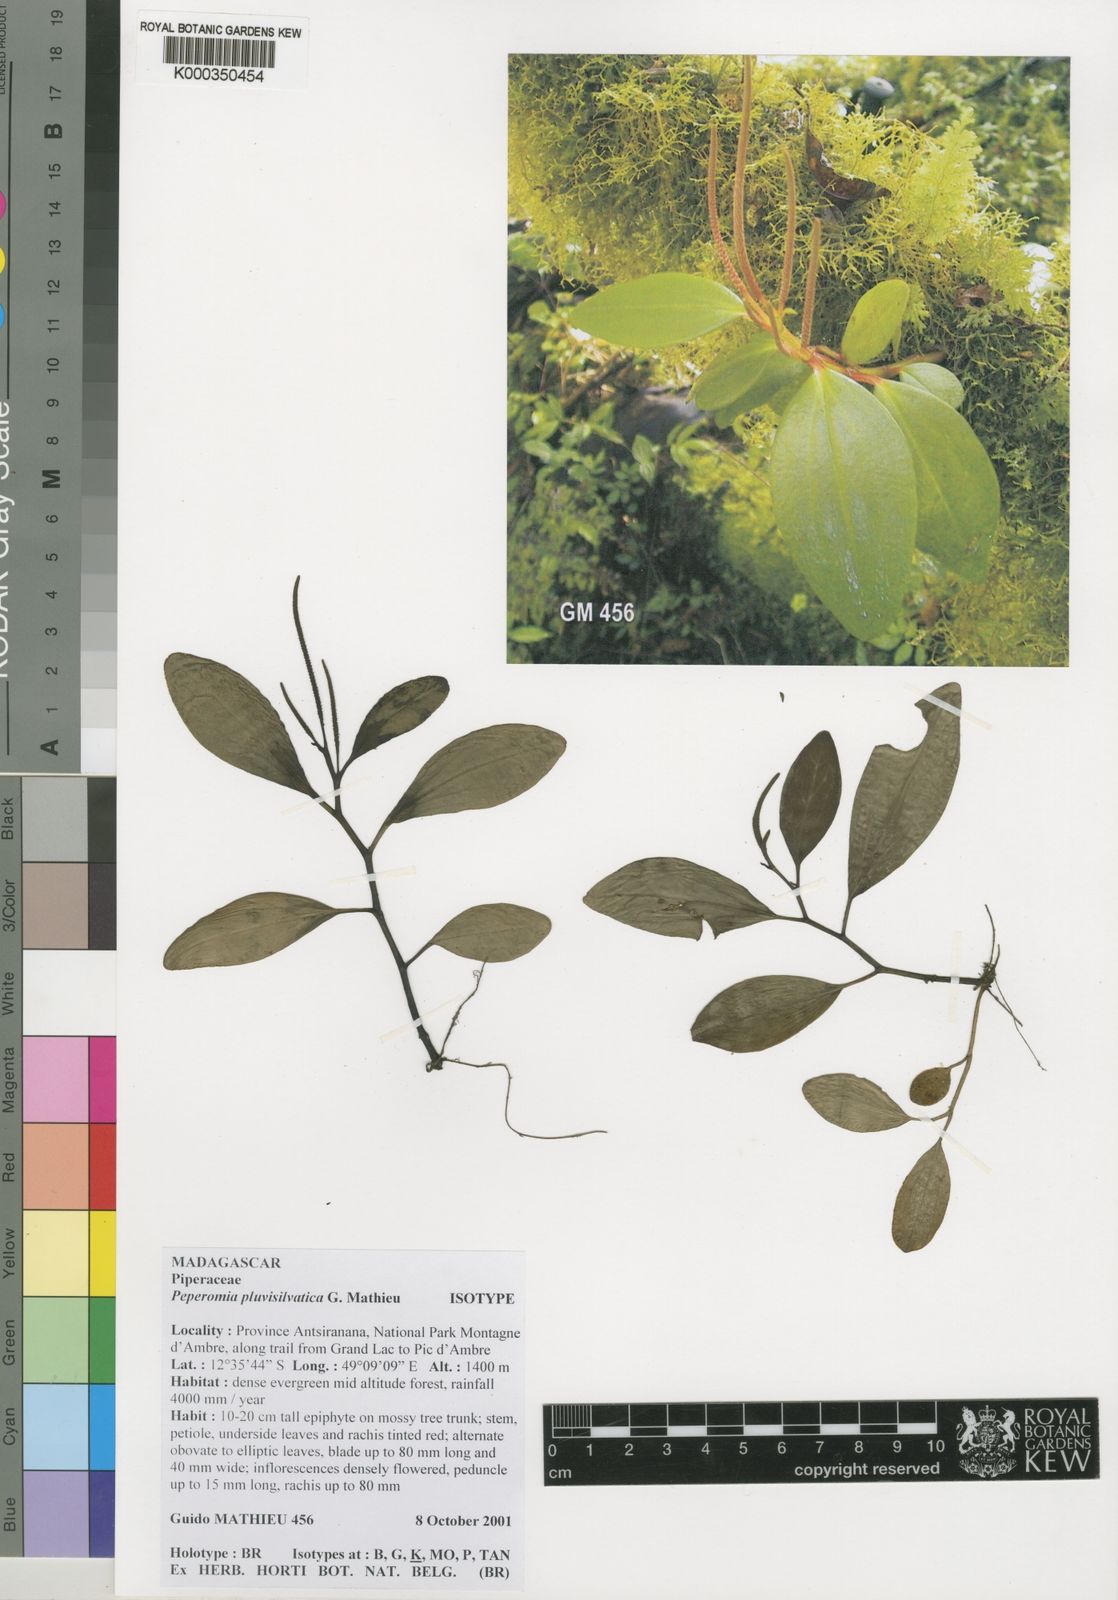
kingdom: Plantae
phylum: Tracheophyta
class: Magnoliopsida
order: Piperales
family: Piperaceae
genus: Peperomia
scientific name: Peperomia pluvisilvatica
